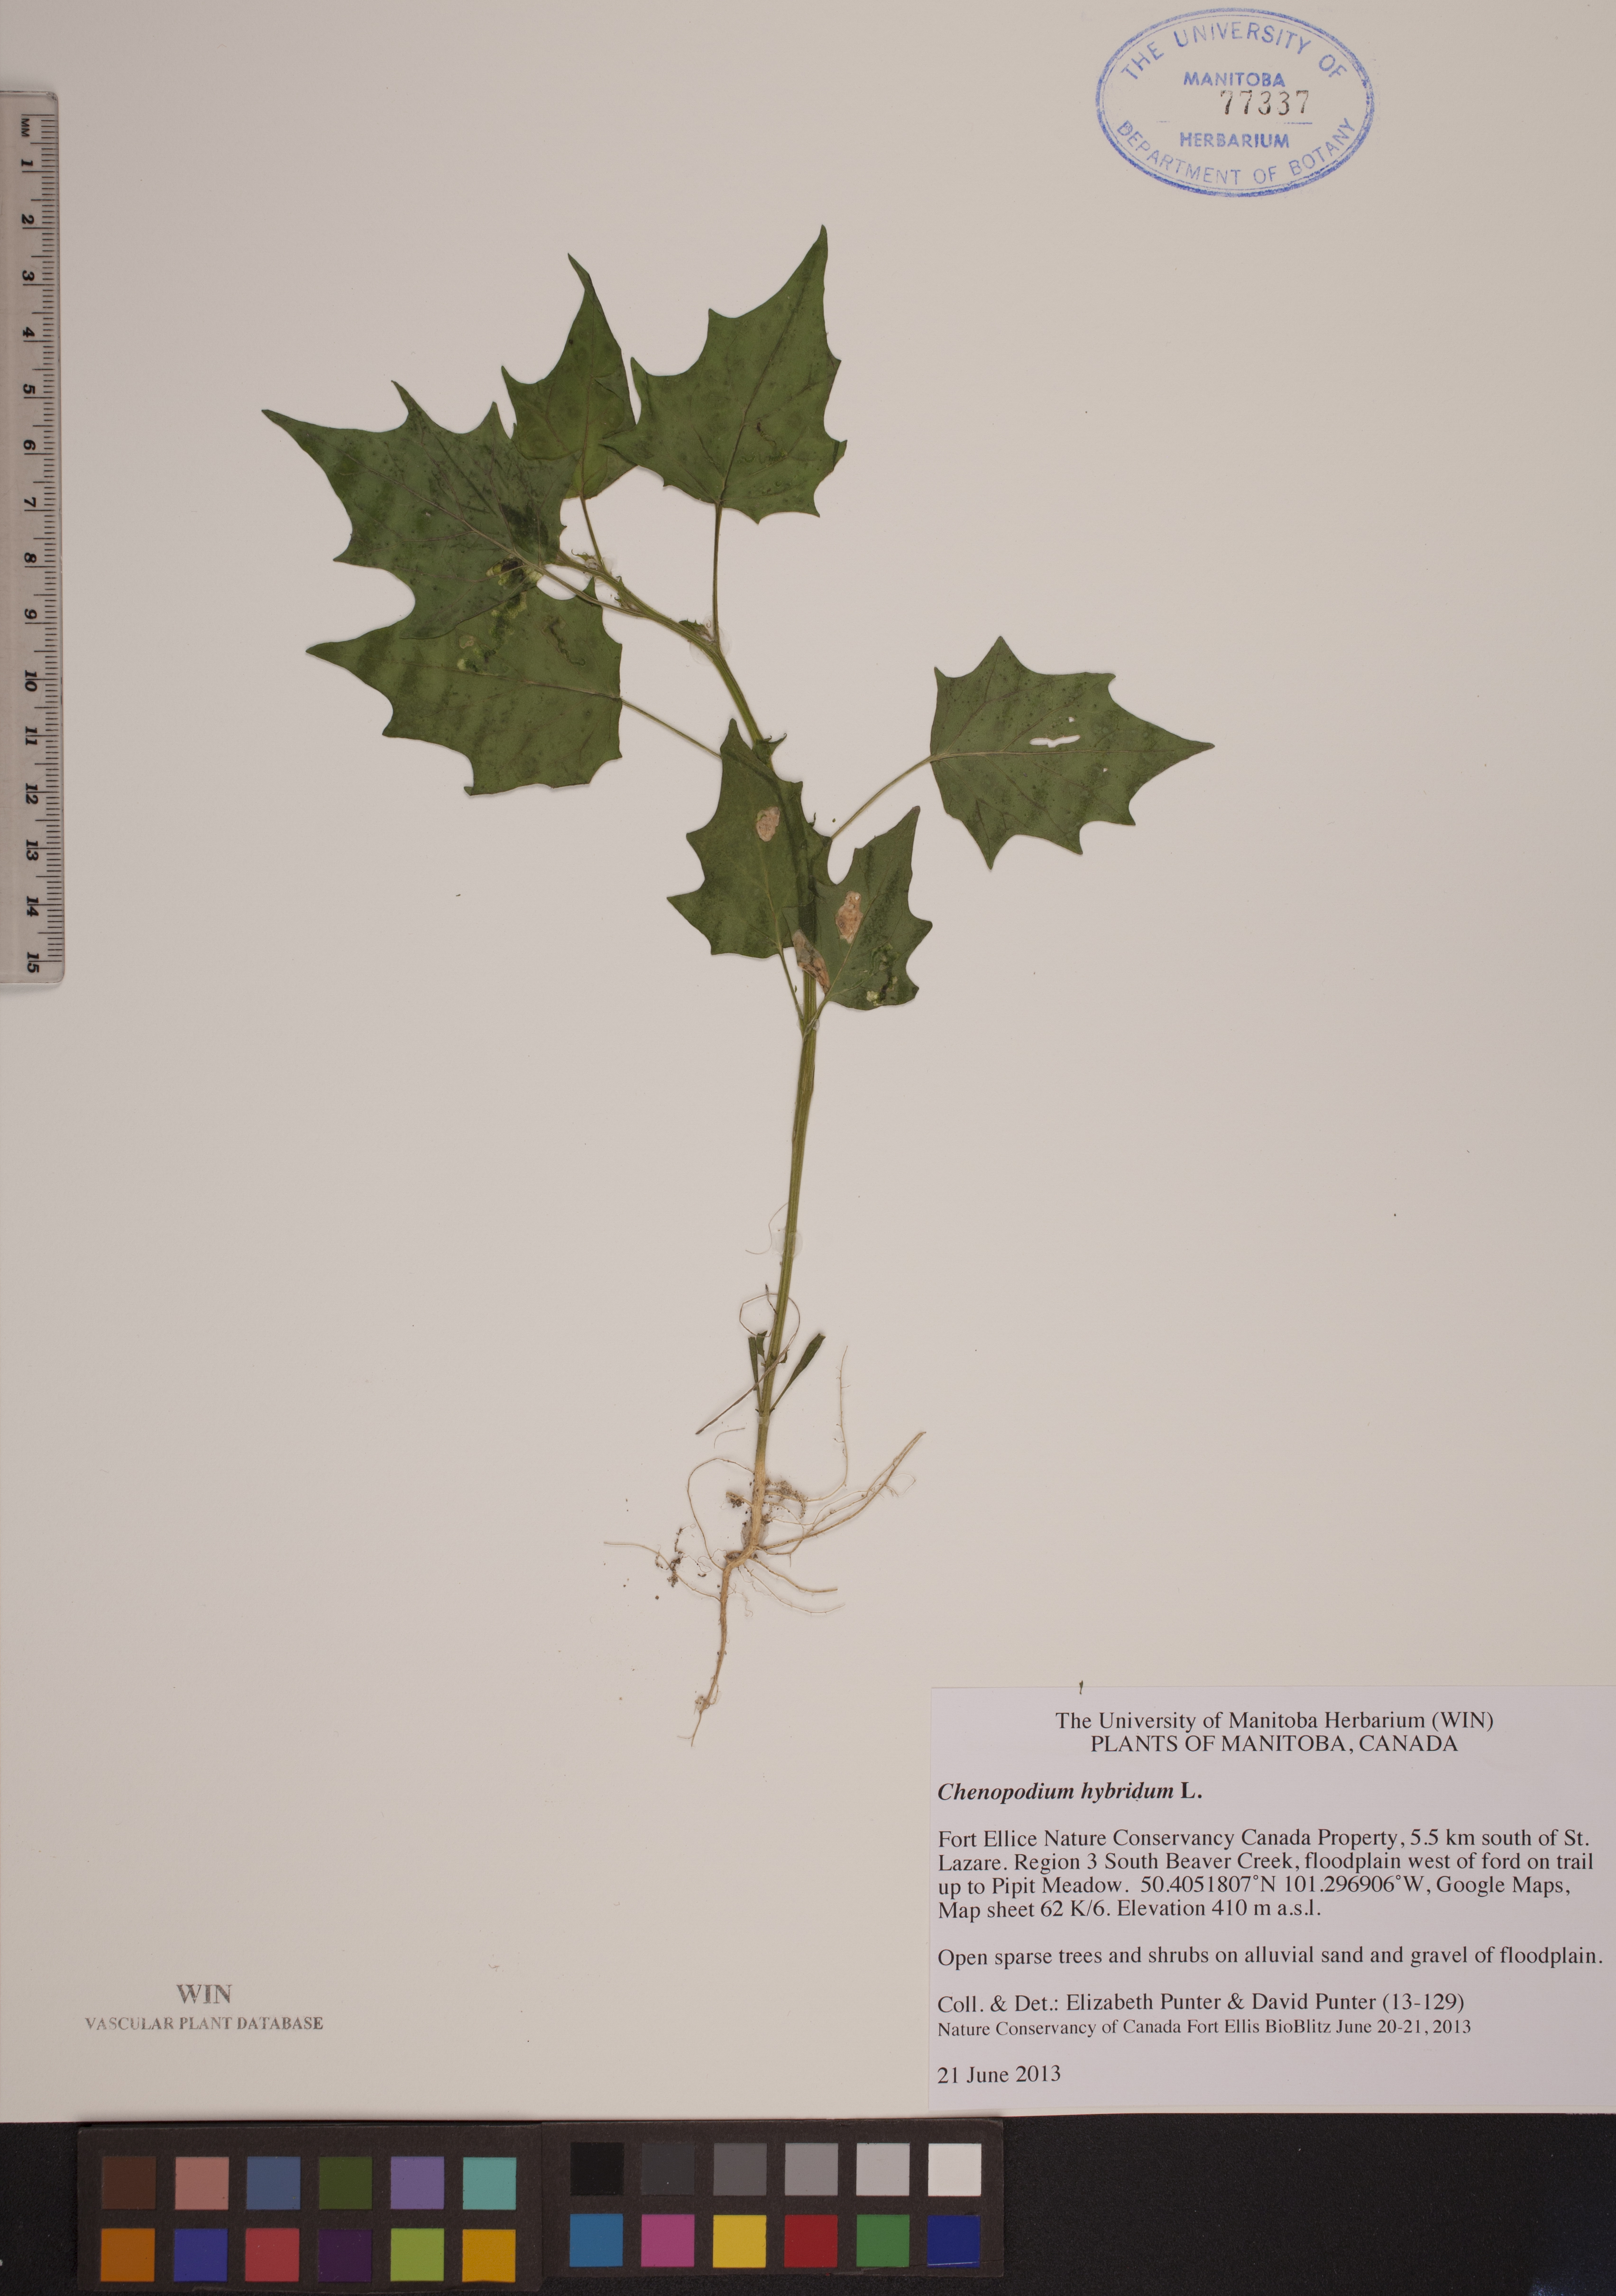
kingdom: Plantae
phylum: Tracheophyta
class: Magnoliopsida
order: Caryophyllales
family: Amaranthaceae
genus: Chenopodiastrum
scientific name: Chenopodiastrum hybridum
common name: Mapleleaf goosefoot
